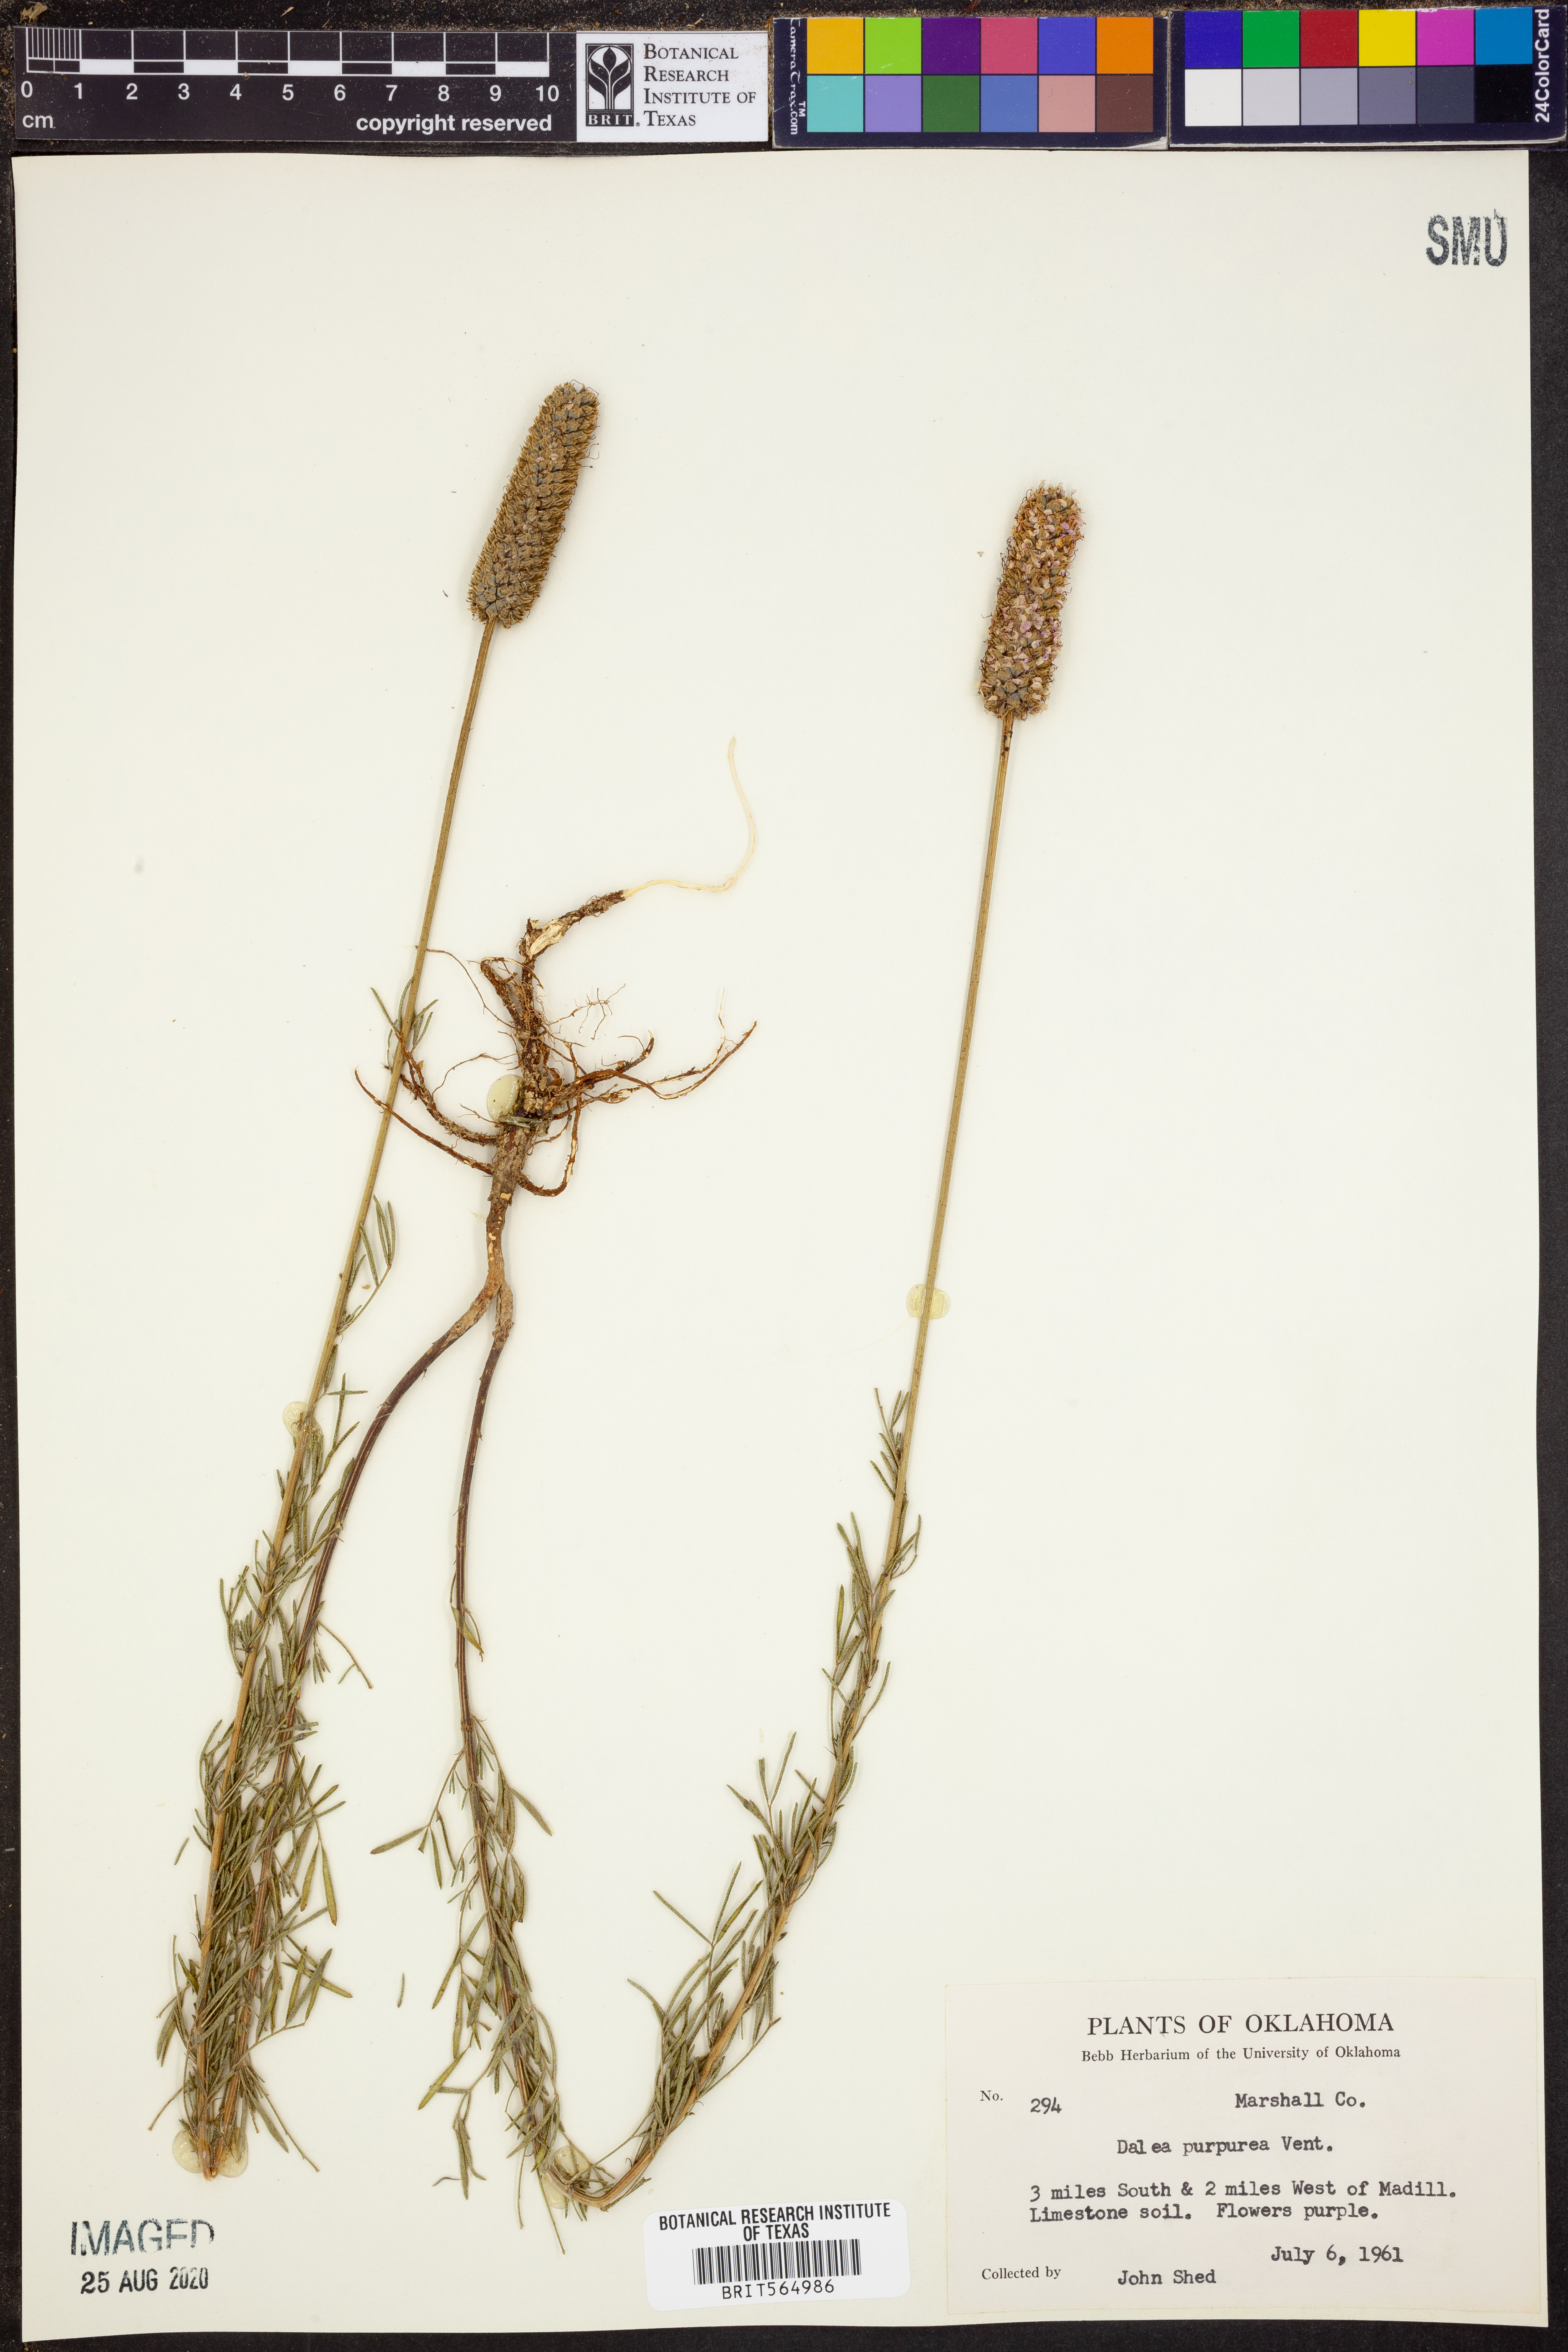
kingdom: Plantae
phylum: Tracheophyta
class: Magnoliopsida
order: Fabales
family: Fabaceae
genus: Dalea
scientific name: Dalea purpurea
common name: Purple prairie-clover
